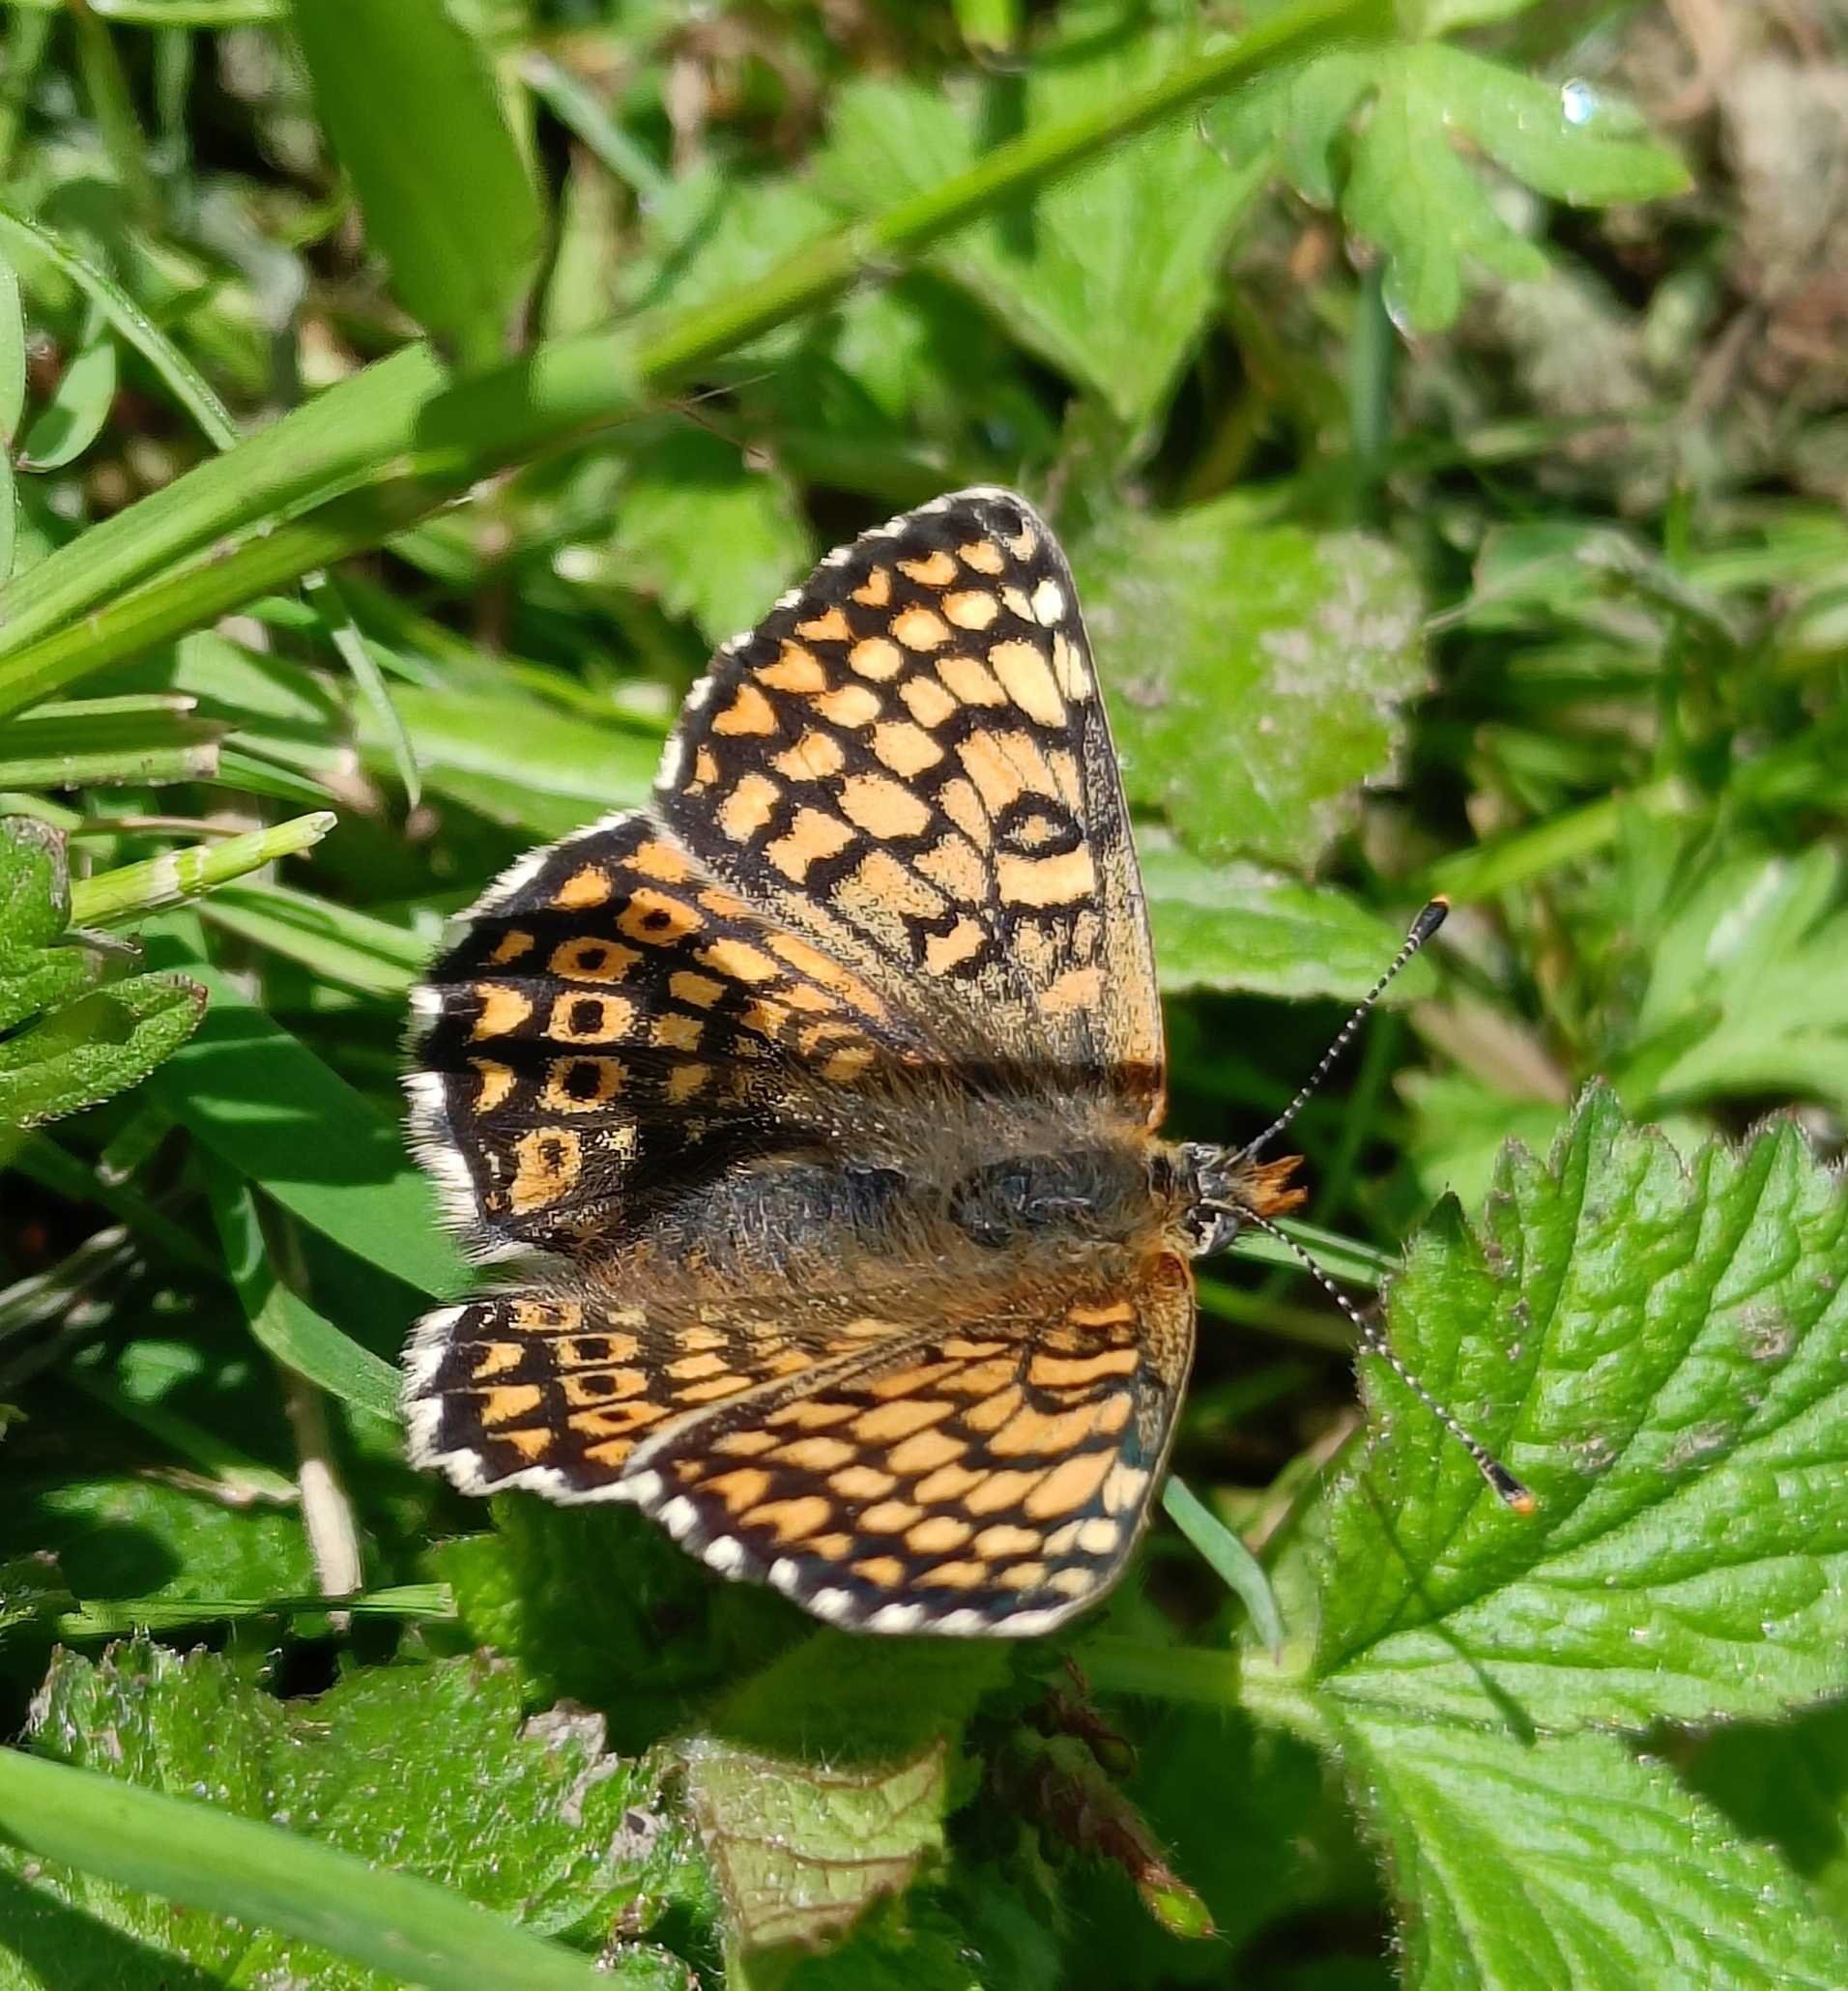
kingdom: Animalia
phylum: Arthropoda
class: Insecta
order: Lepidoptera
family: Nymphalidae
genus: Melitaea
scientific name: Melitaea cinxia
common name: Okkergul pletvinge
